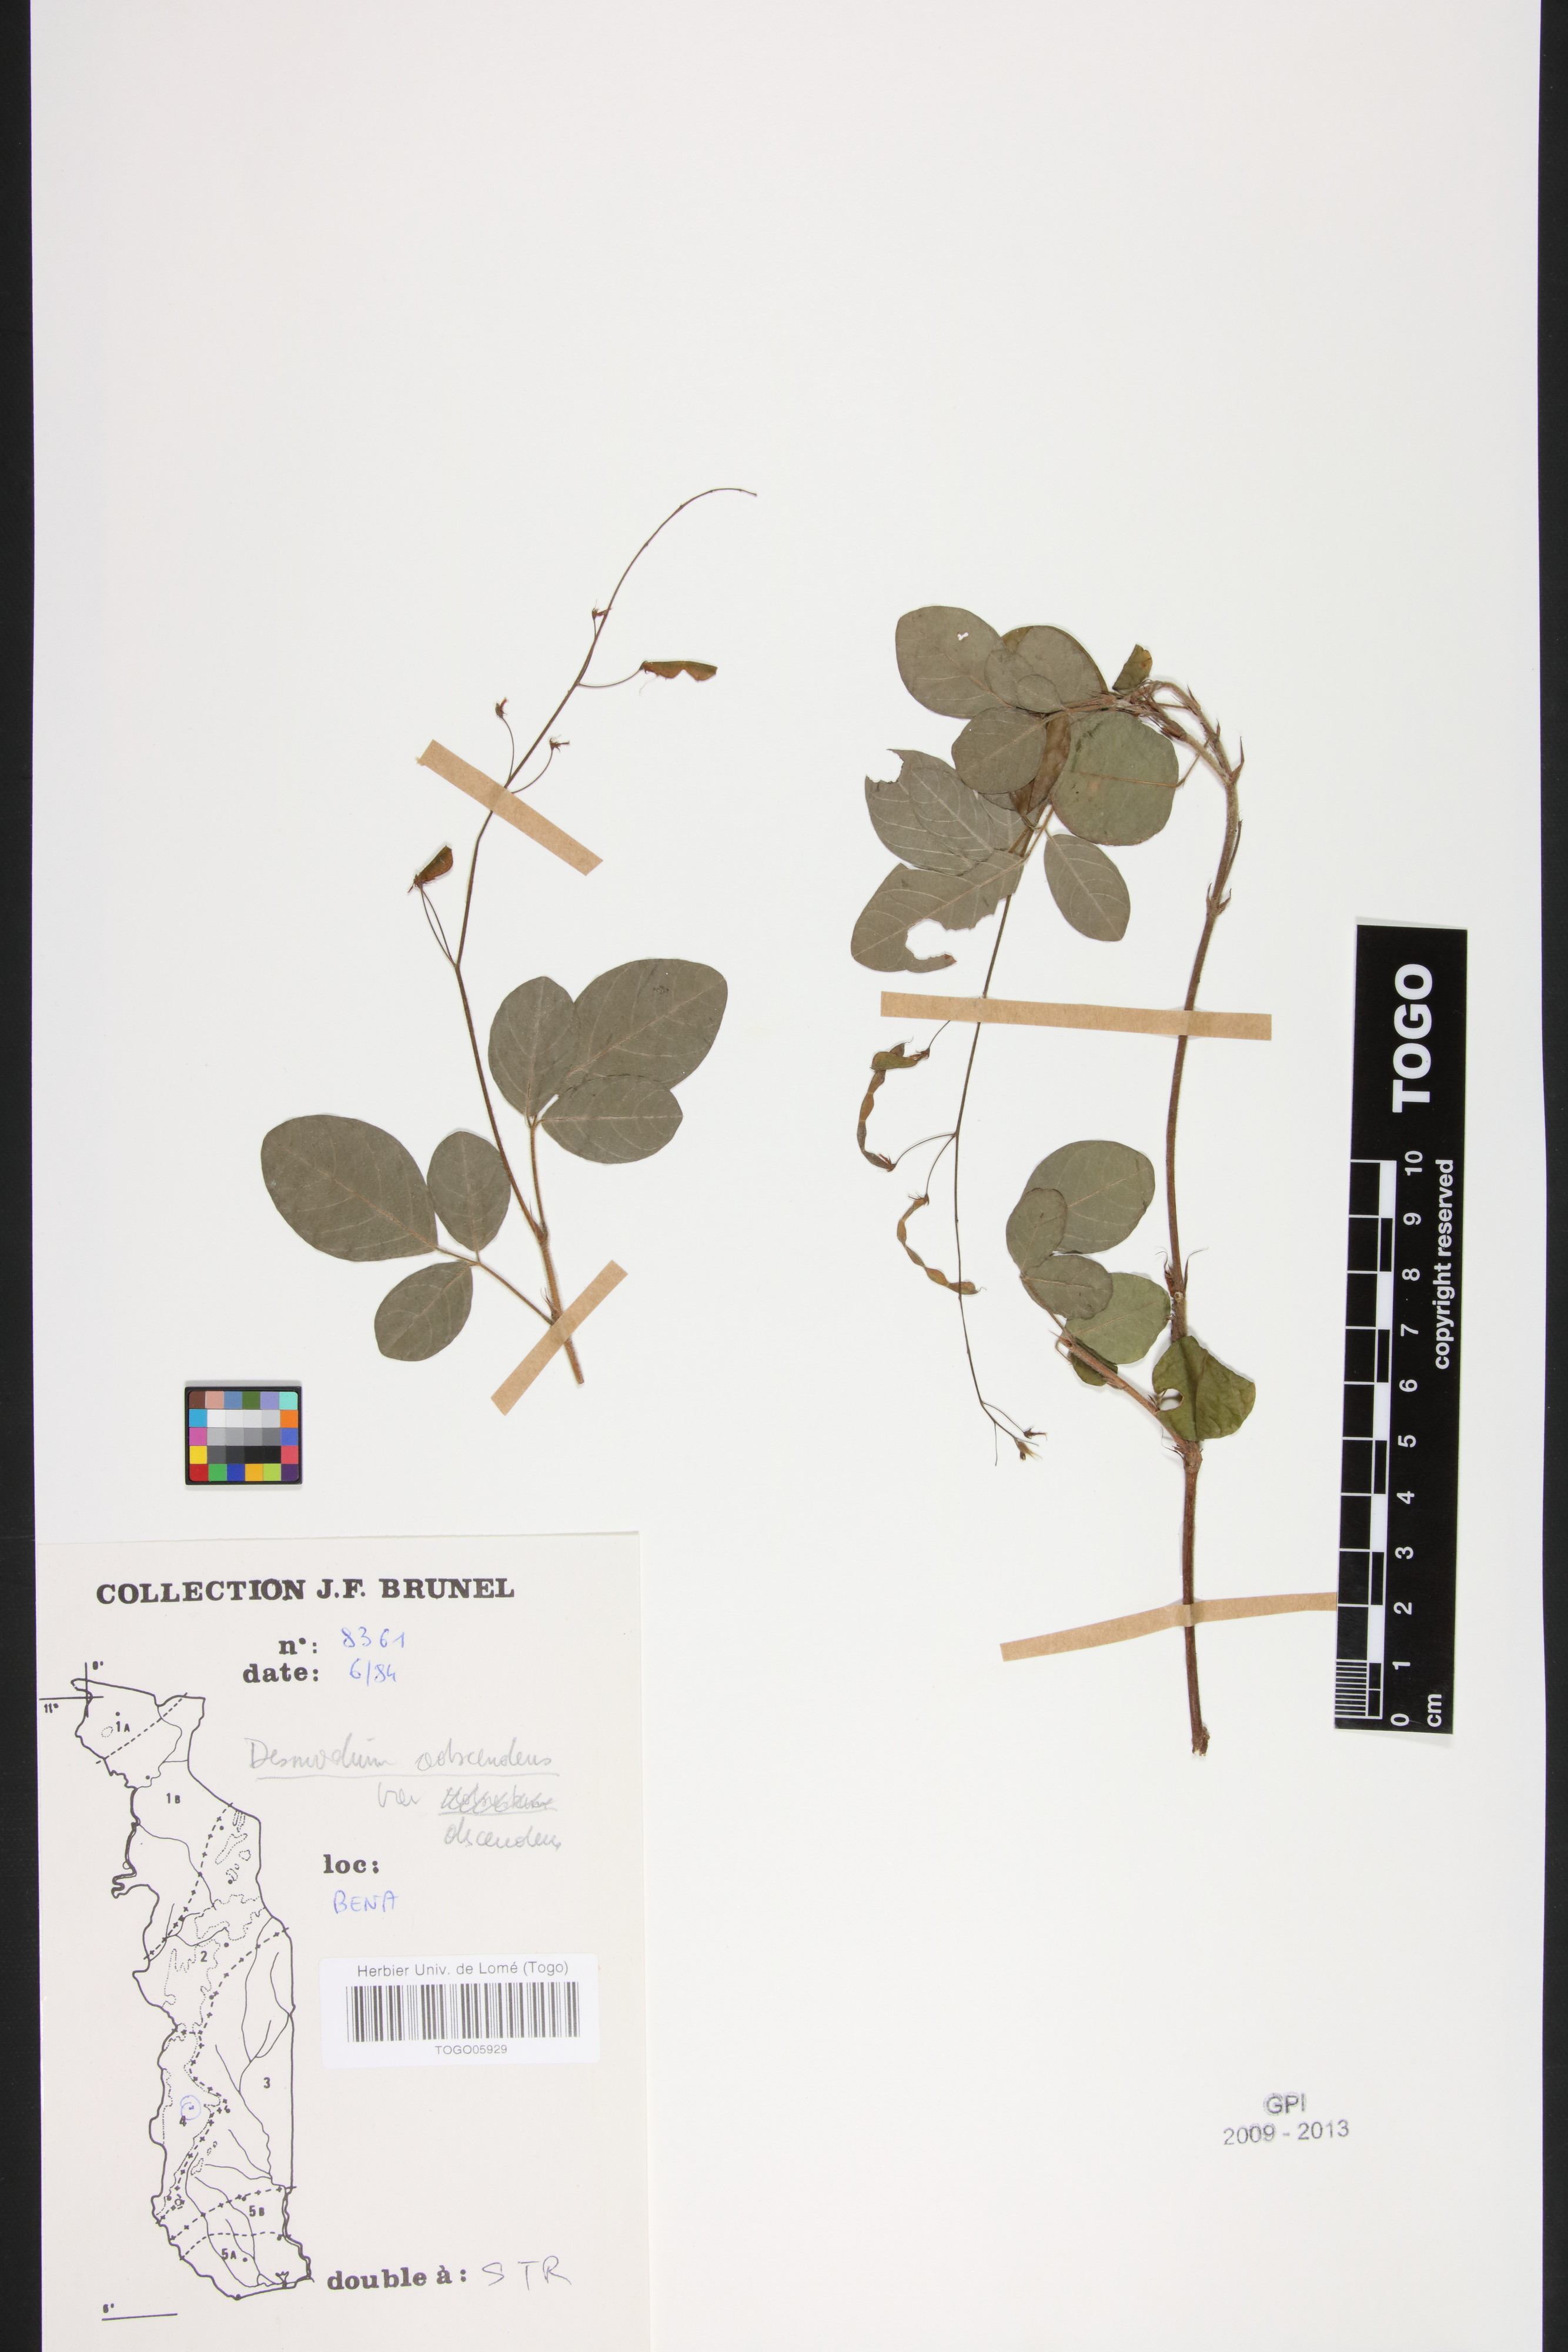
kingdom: Plantae
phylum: Tracheophyta
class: Magnoliopsida
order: Fabales
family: Fabaceae
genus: Grona
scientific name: Grona adscendens
